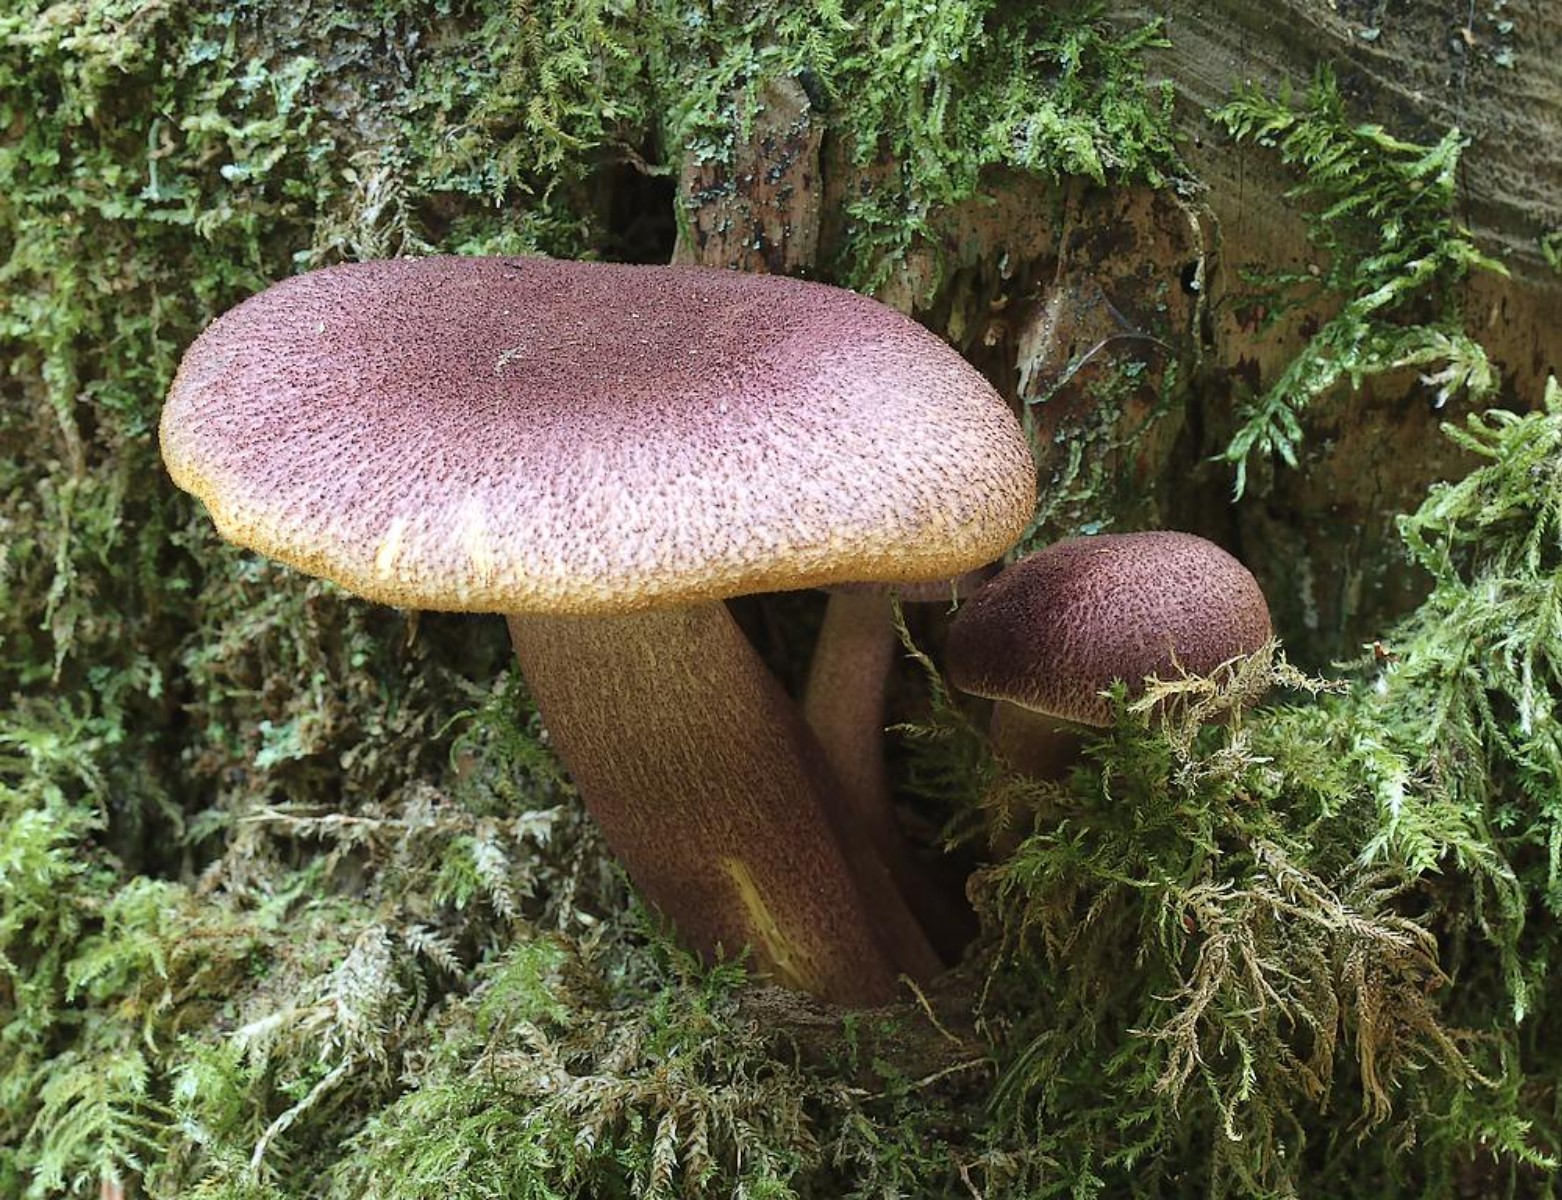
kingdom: Fungi
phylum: Basidiomycota
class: Agaricomycetes
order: Agaricales
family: Tricholomataceae
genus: Tricholomopsis
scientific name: Tricholomopsis rutilans
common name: purpur-væbnerhat
